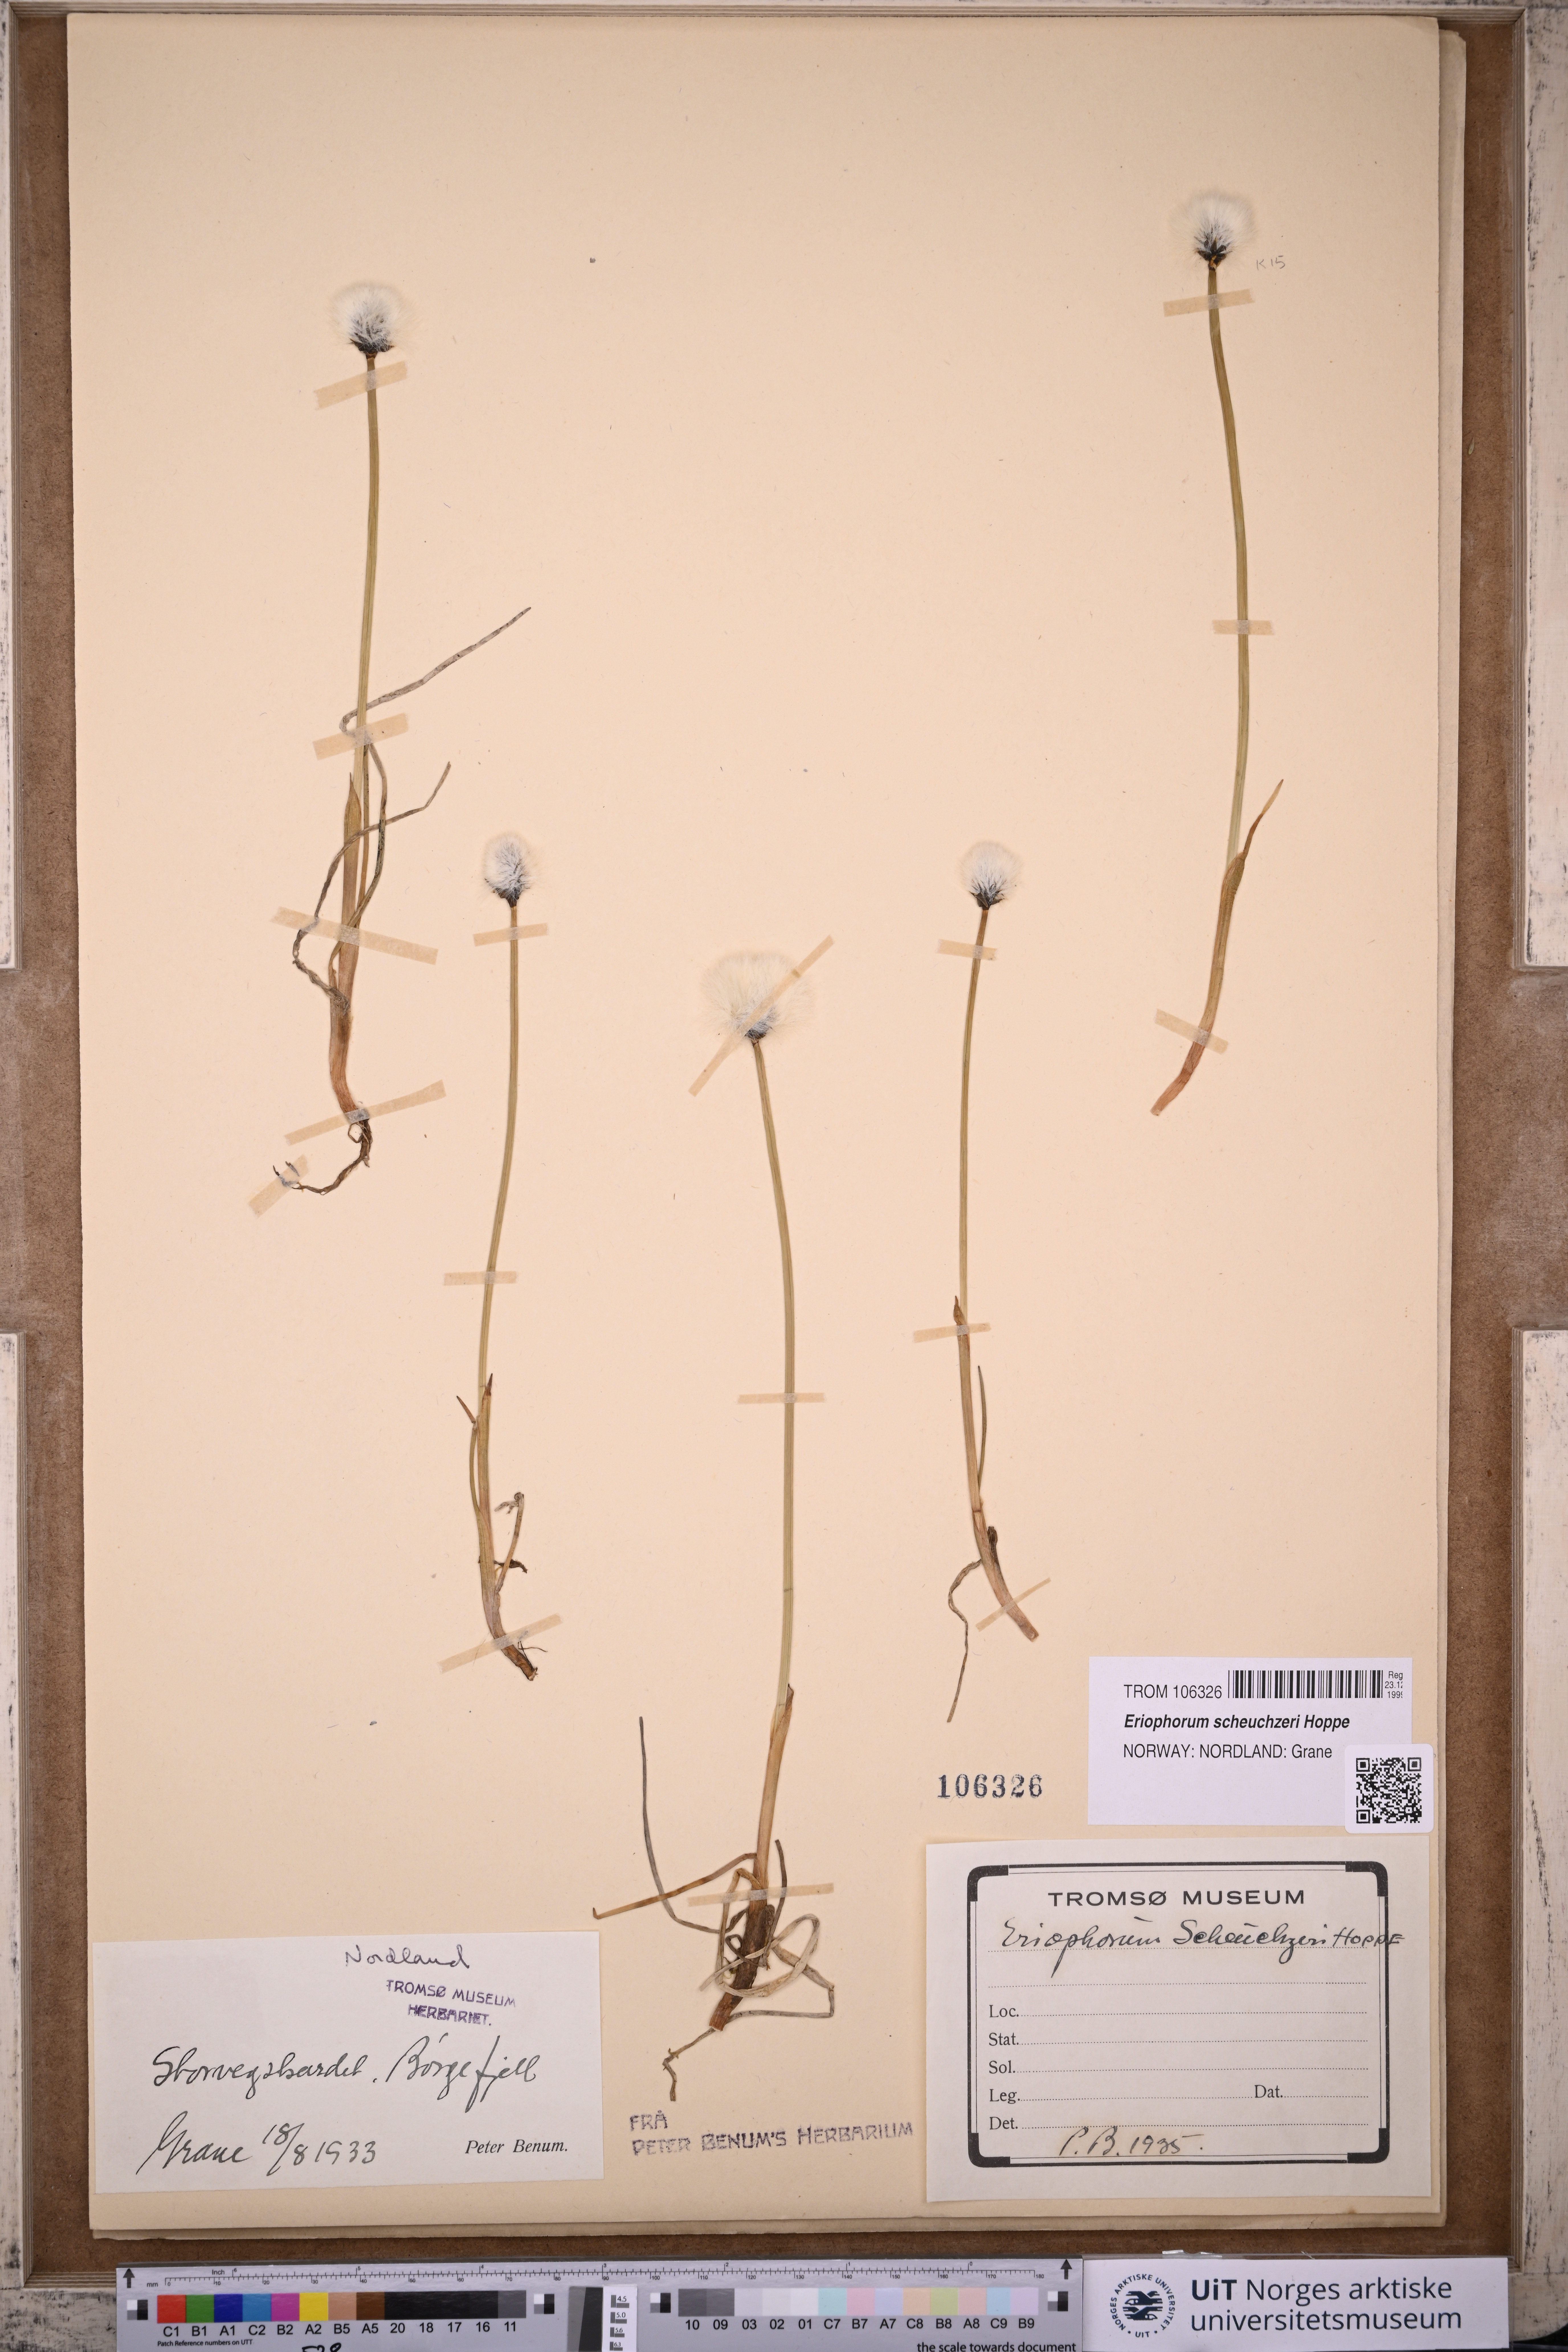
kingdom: Plantae
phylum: Tracheophyta
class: Liliopsida
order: Poales
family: Cyperaceae
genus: Eriophorum
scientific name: Eriophorum scheuchzeri
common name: Scheuchzer's cottongrass
